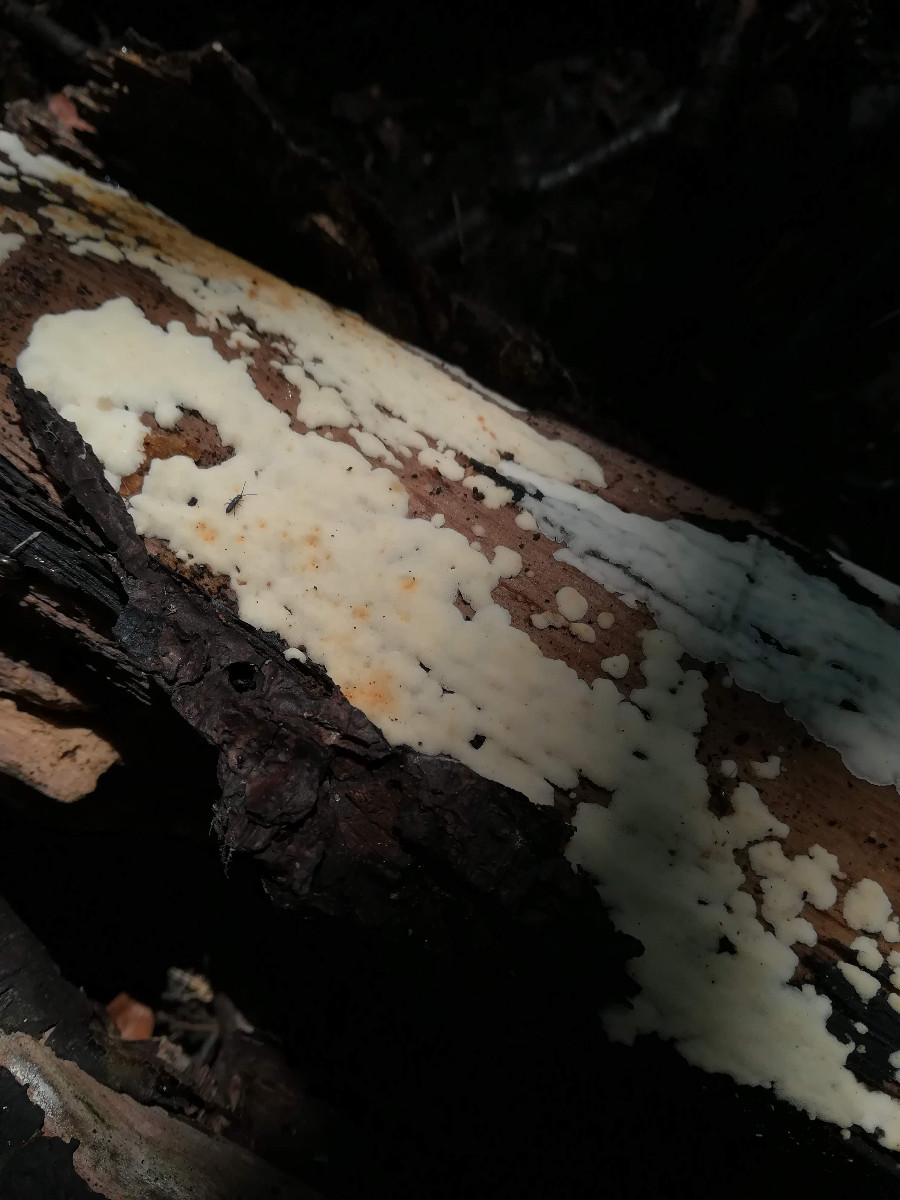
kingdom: Fungi
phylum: Basidiomycota
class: Agaricomycetes
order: Polyporales
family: Meripilaceae
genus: Rigidoporus
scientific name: Rigidoporus sanguinolentus
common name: blod-skorpeporesvamp
